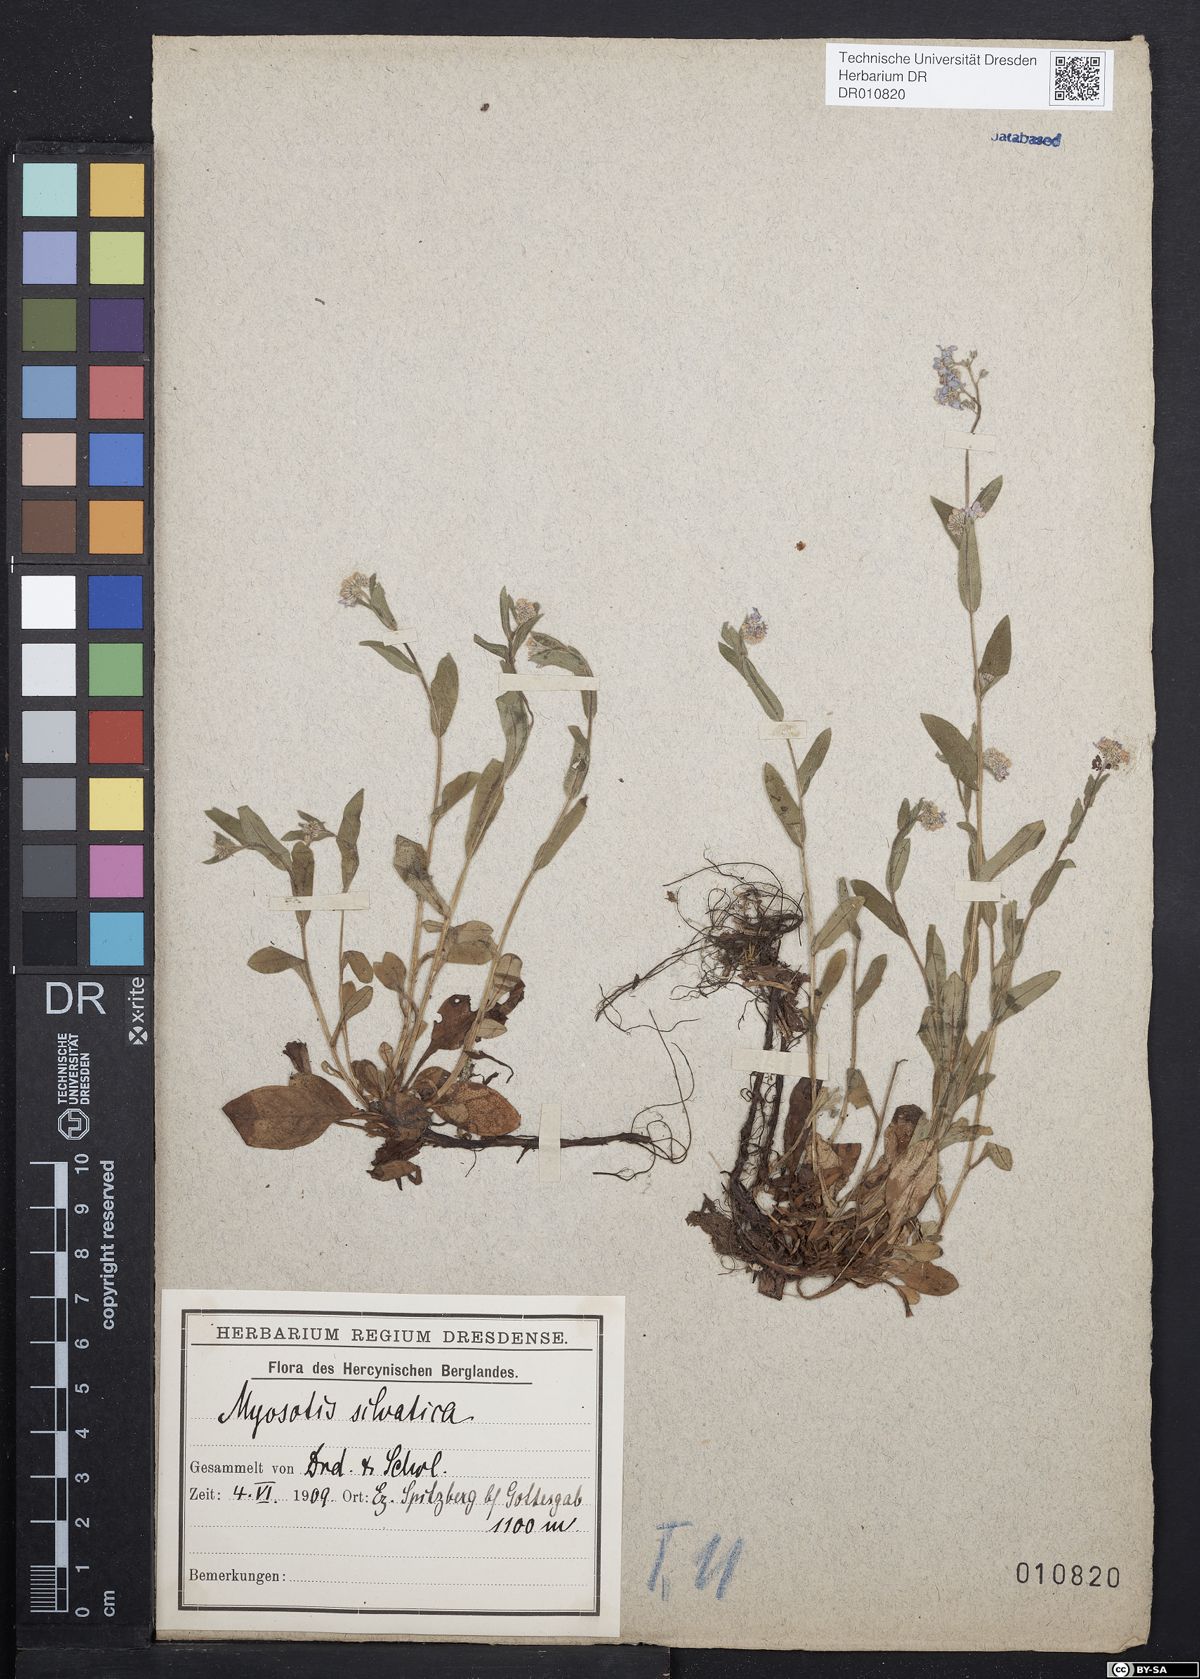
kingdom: Plantae
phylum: Tracheophyta
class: Magnoliopsida
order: Boraginales
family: Boraginaceae
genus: Myosotis
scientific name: Myosotis sylvatica
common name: Wood forget-me-not
